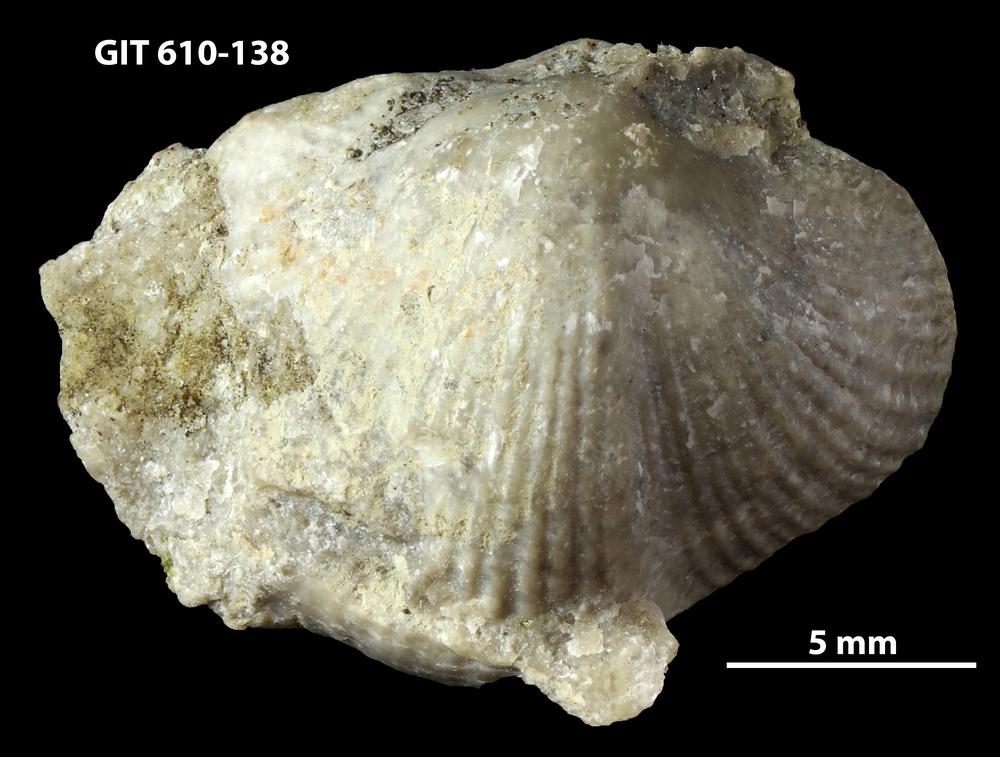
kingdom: Animalia
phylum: Brachiopoda
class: Rhynchonellata
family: Triplesiidae
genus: Cliftonia
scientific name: Cliftonia
